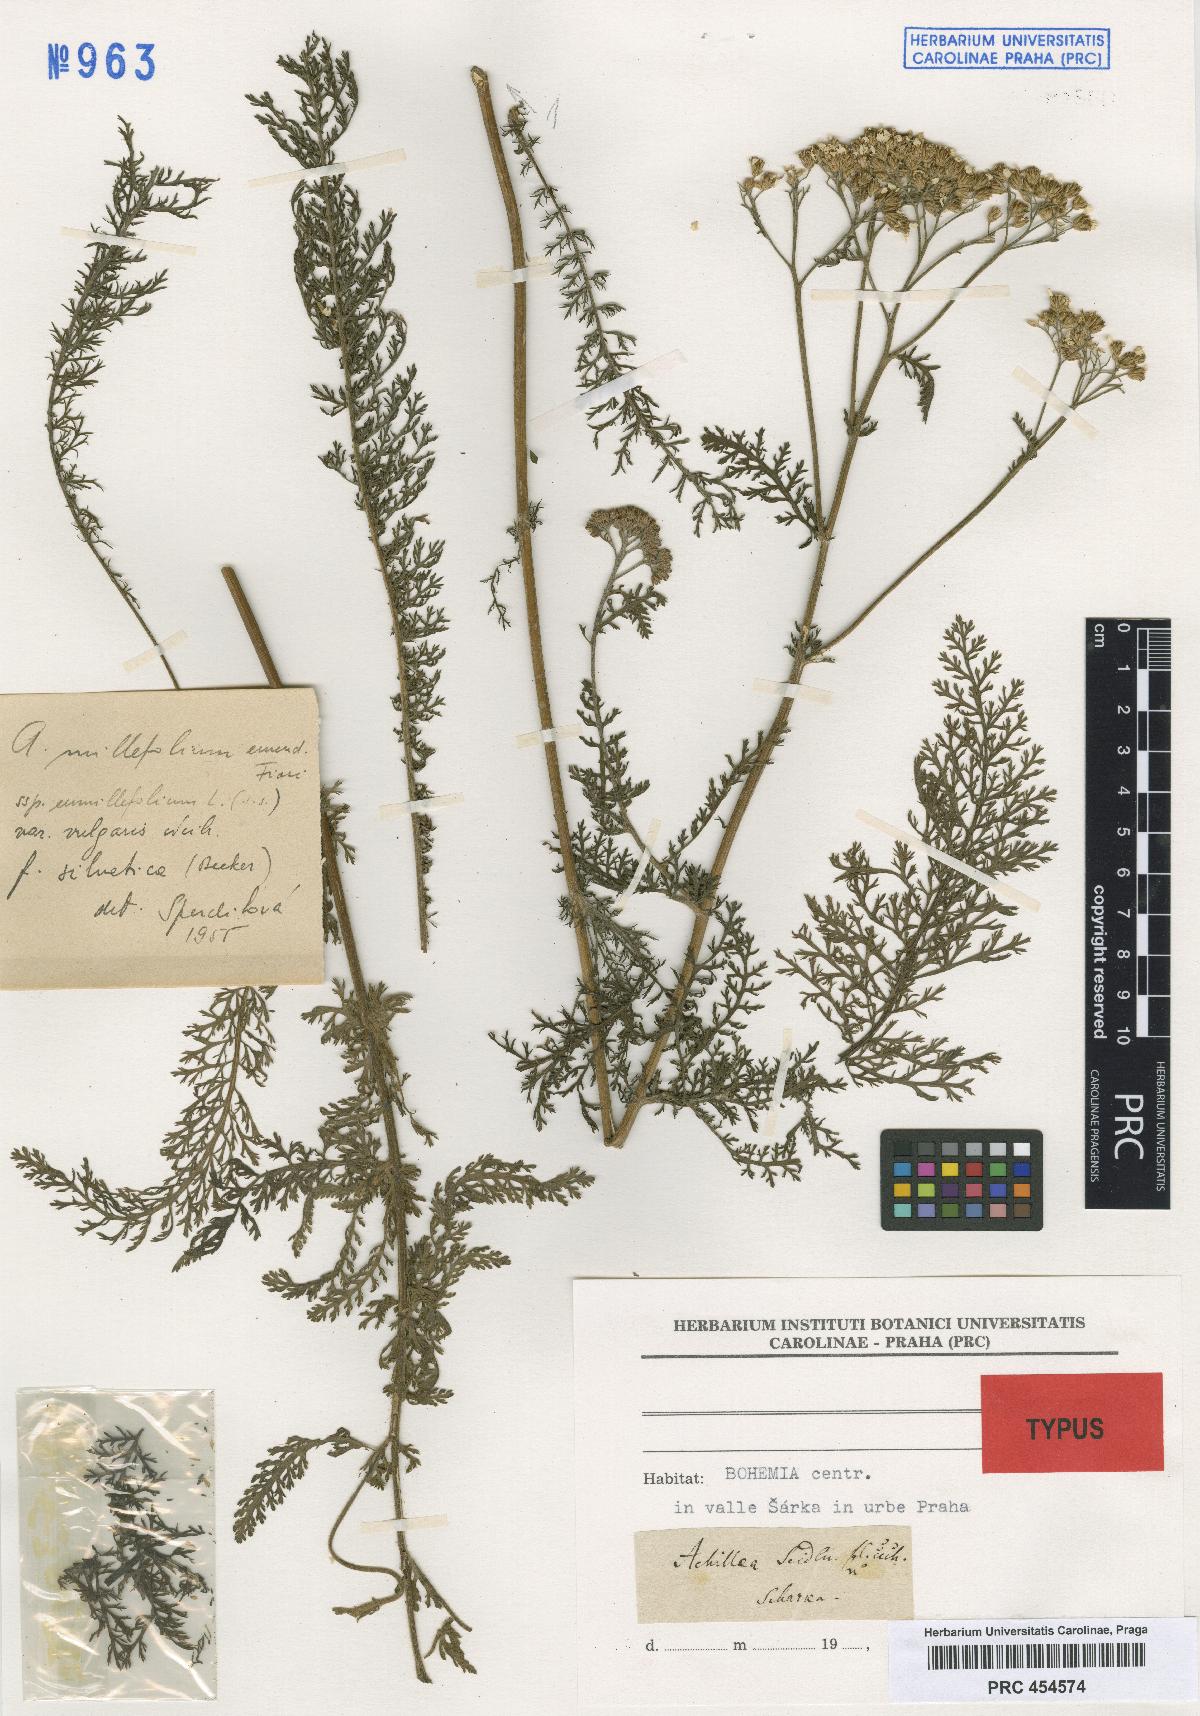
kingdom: Plantae
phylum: Tracheophyta
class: Magnoliopsida
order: Asterales
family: Asteraceae
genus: Achillea
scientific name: Achillea pannonica
